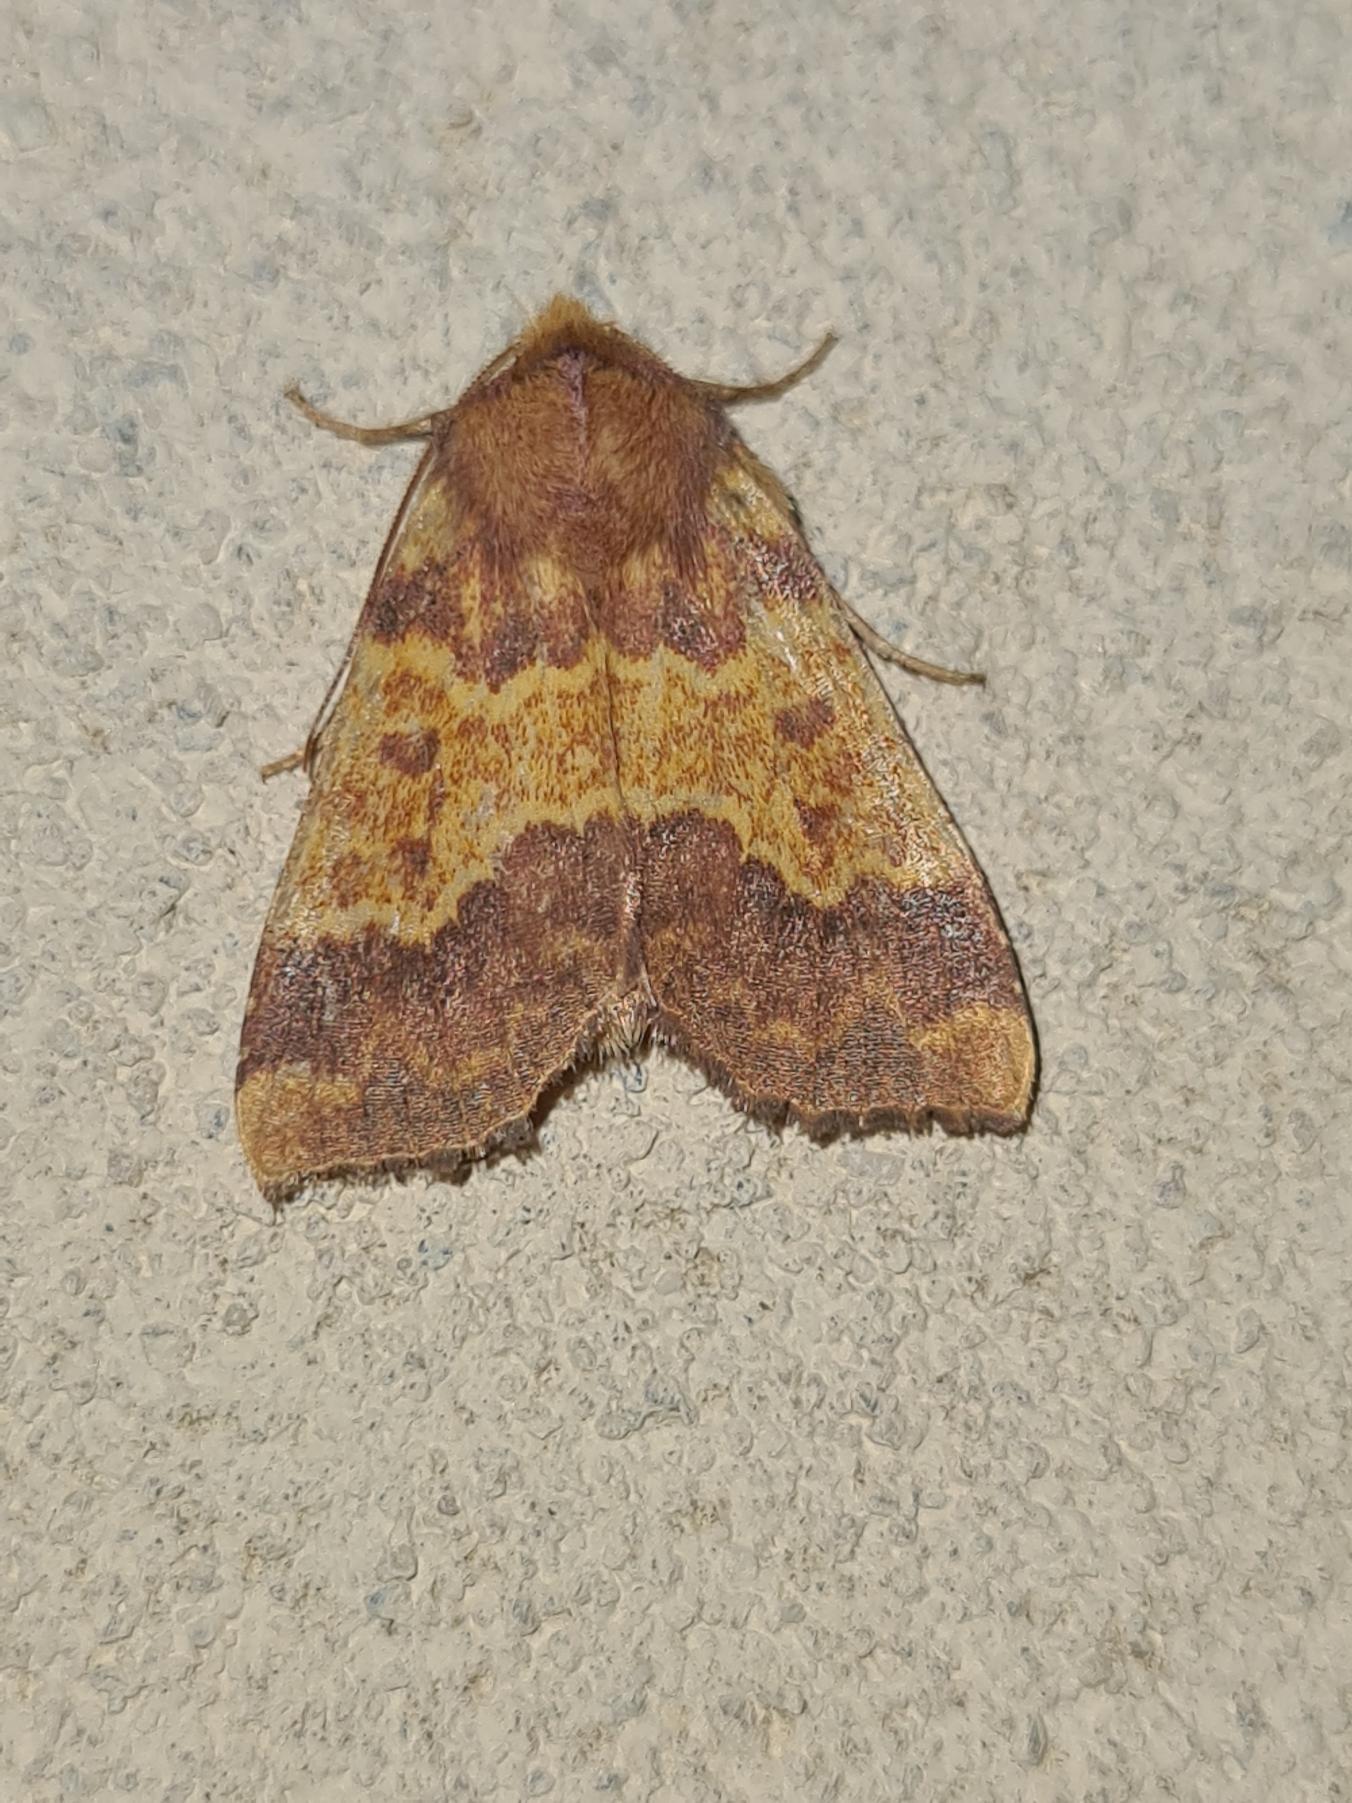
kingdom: Animalia
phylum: Arthropoda
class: Insecta
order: Lepidoptera
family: Noctuidae
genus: Tiliacea
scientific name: Tiliacea aurago
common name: Guldugle
